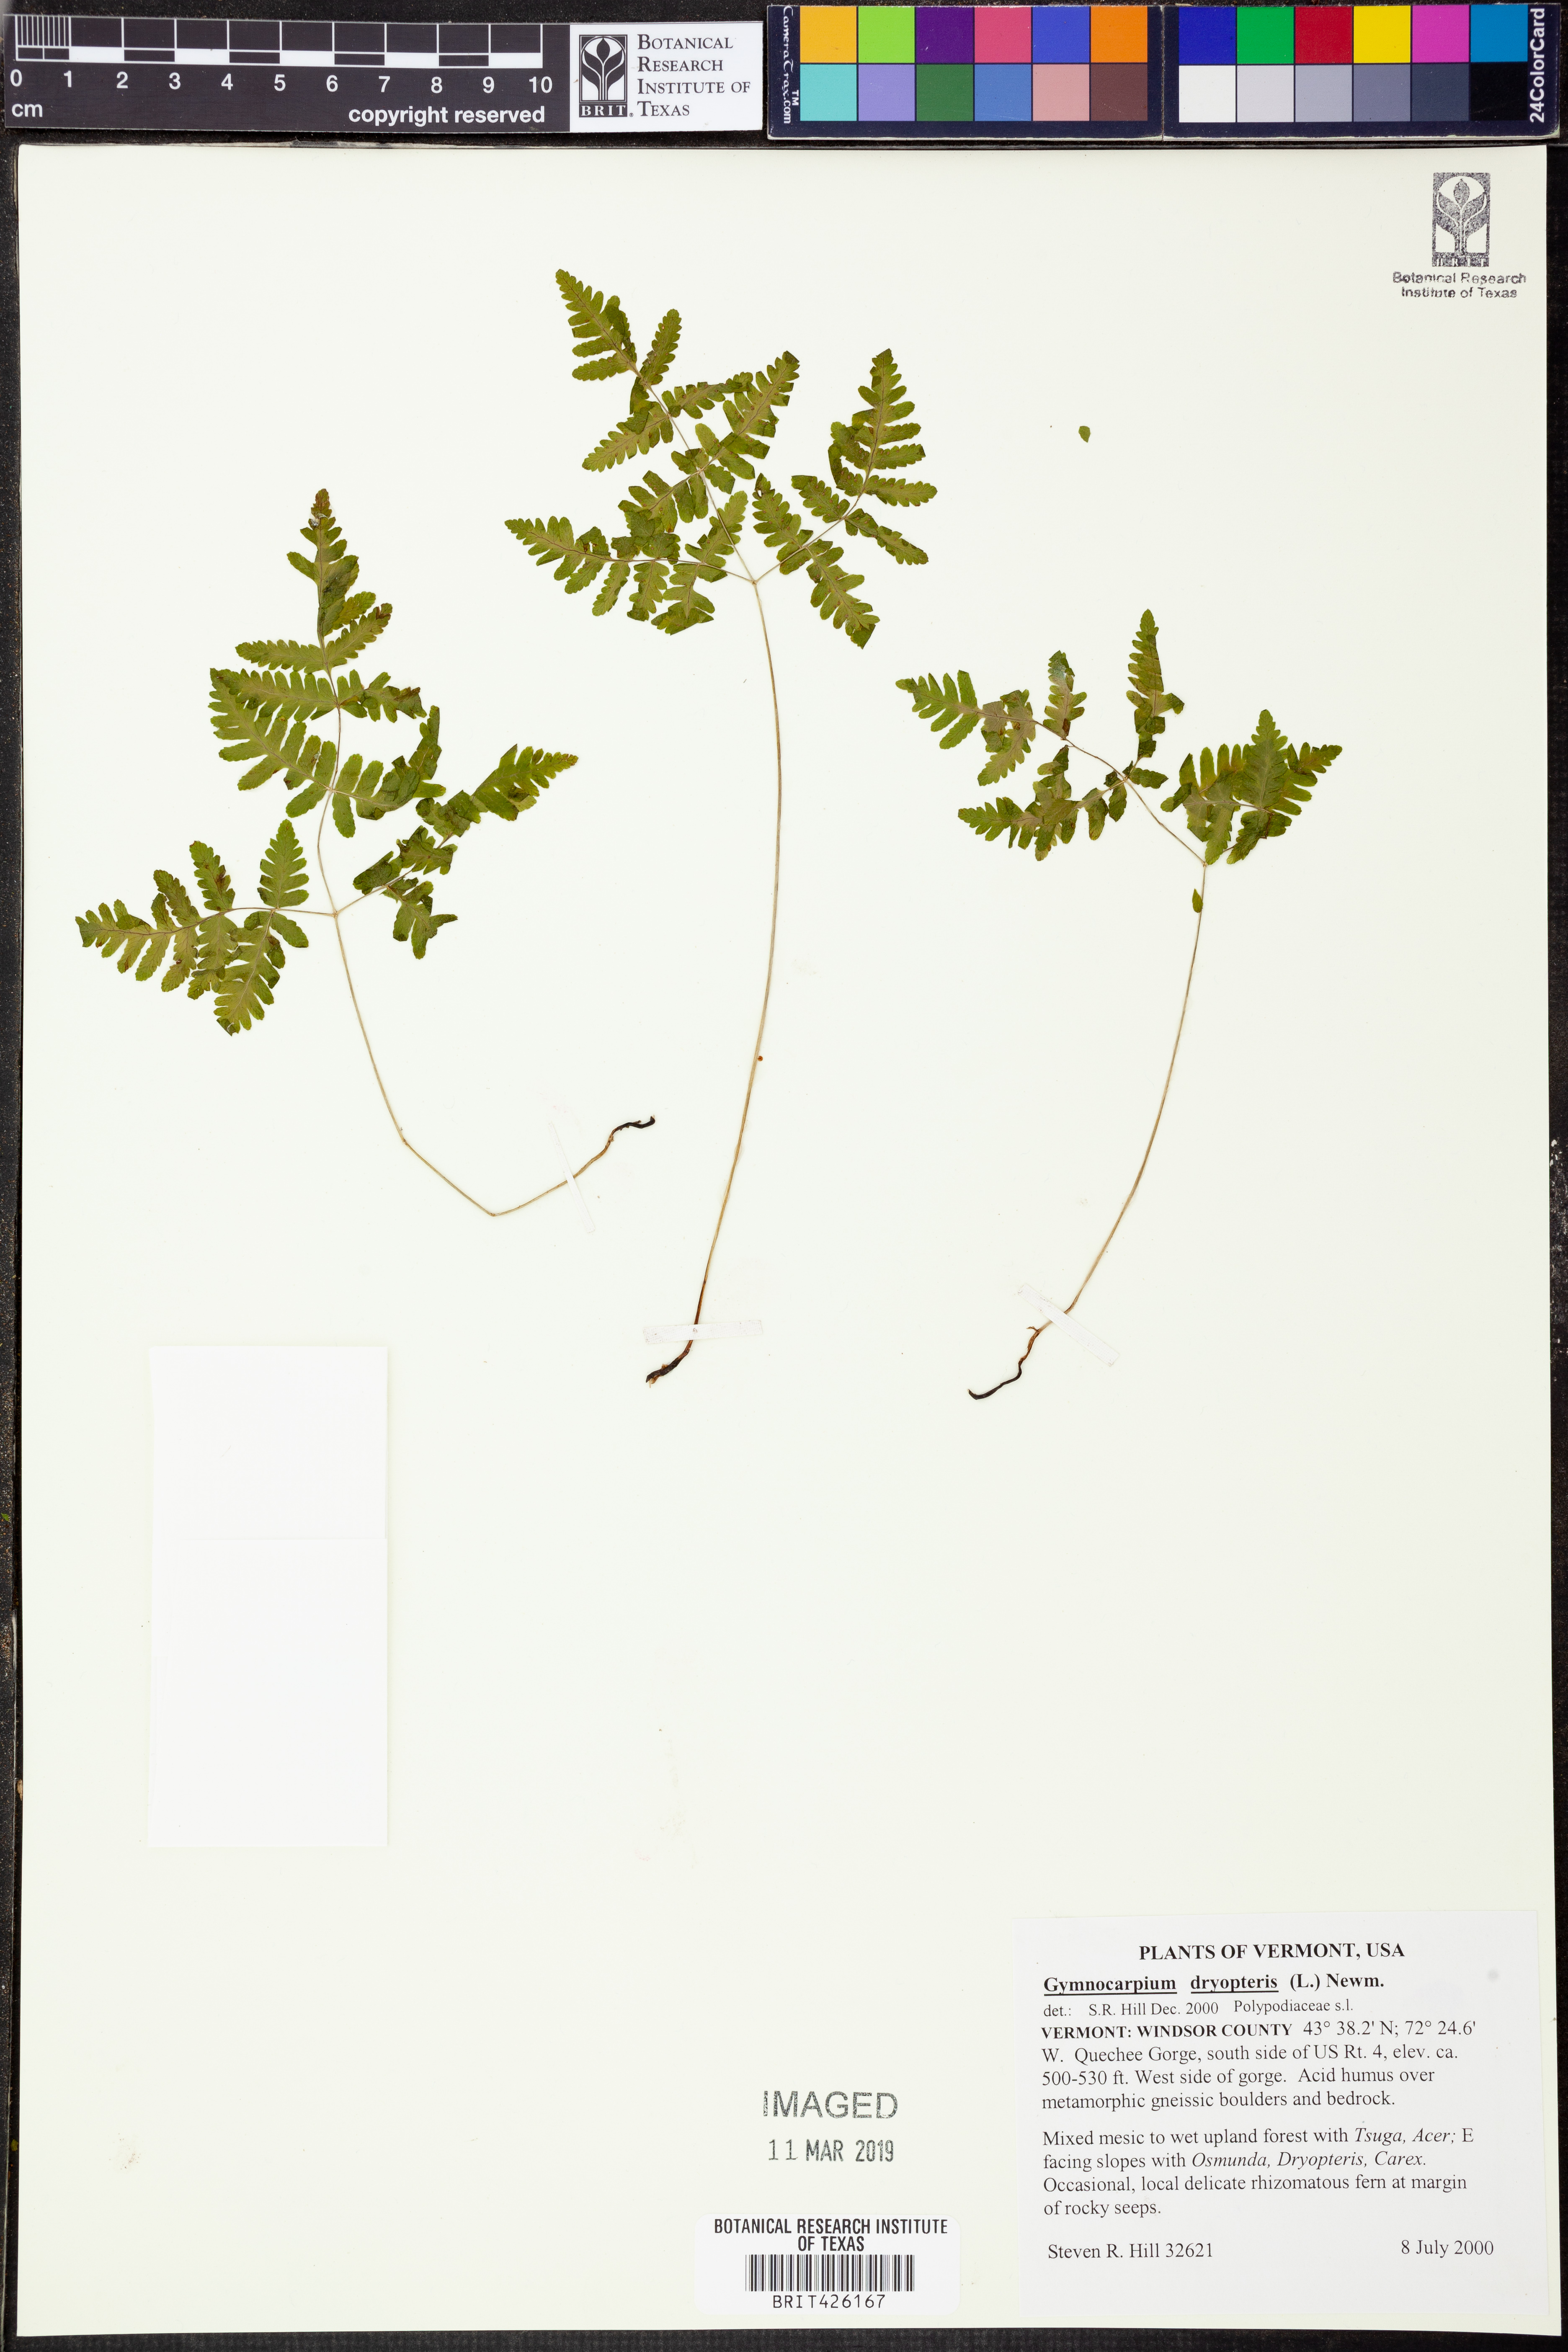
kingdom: Plantae
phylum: Tracheophyta
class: Polypodiopsida
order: Polypodiales
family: Cystopteridaceae
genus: Gymnocarpium
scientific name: Gymnocarpium dryopteris
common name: Oak fern
